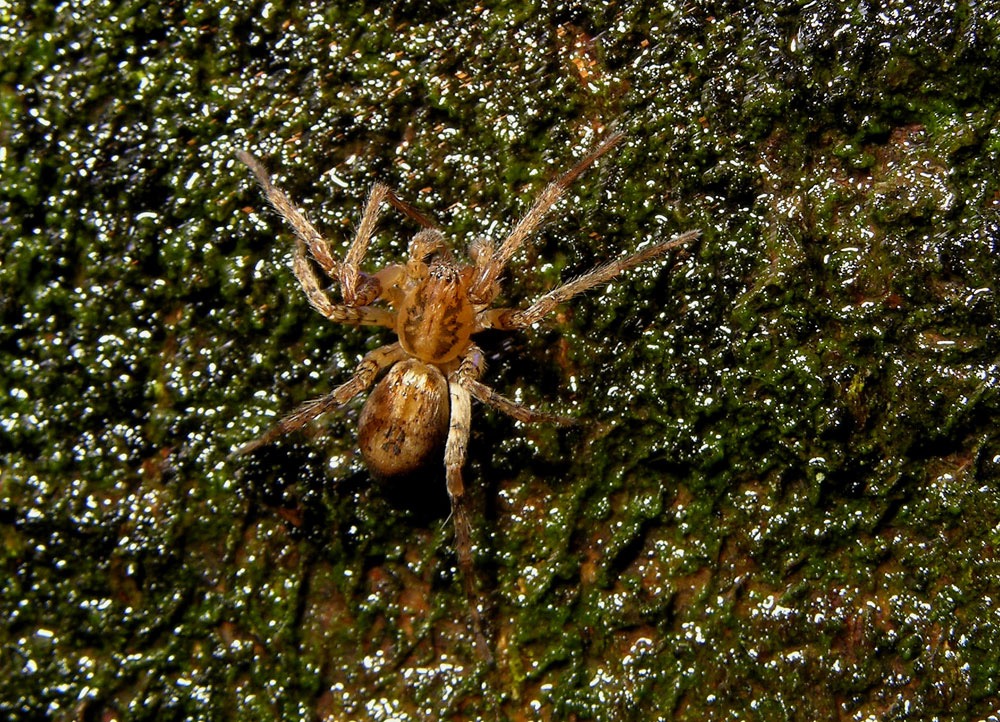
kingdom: Animalia
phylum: Arthropoda
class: Arachnida
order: Araneae
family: Anyphaenidae
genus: Anyphaena
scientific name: Anyphaena accentuata
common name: Summeedderkop
